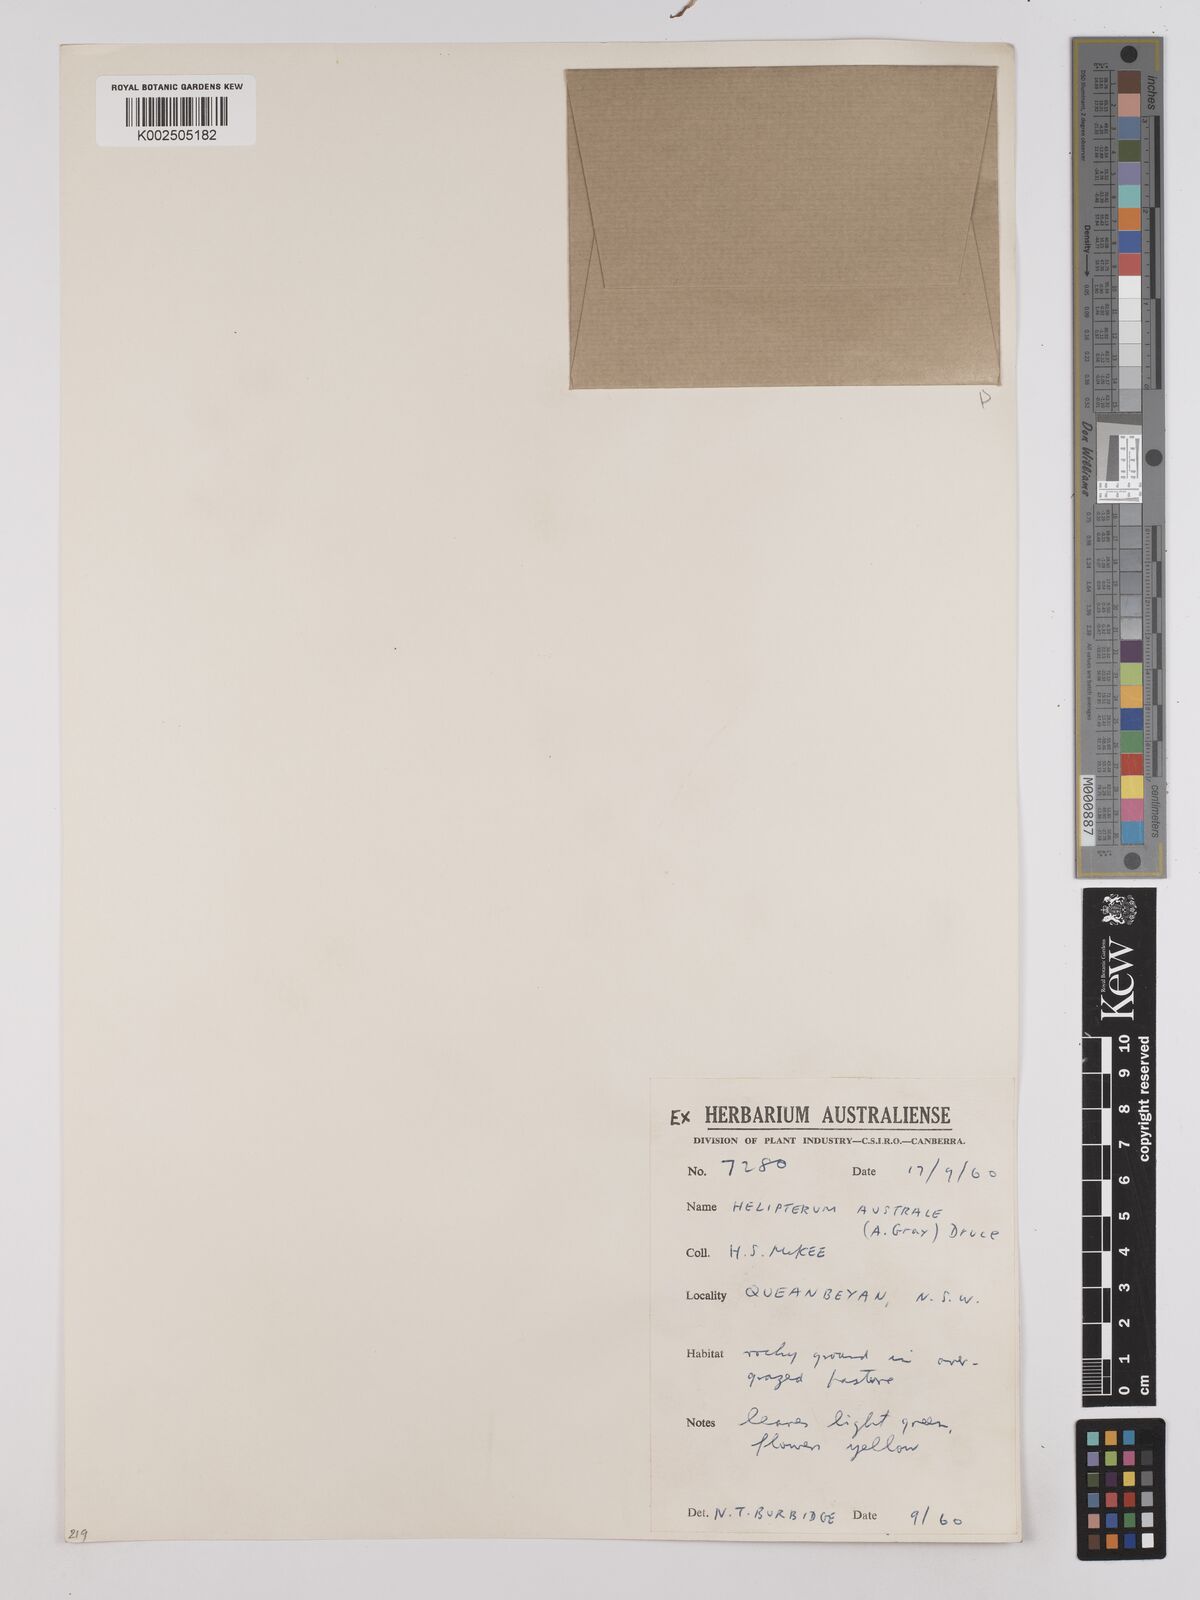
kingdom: Plantae
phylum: Tracheophyta
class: Magnoliopsida
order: Asterales
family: Asteraceae
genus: Triptilodiscus
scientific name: Triptilodiscus pygmaeus
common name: Common sunray
